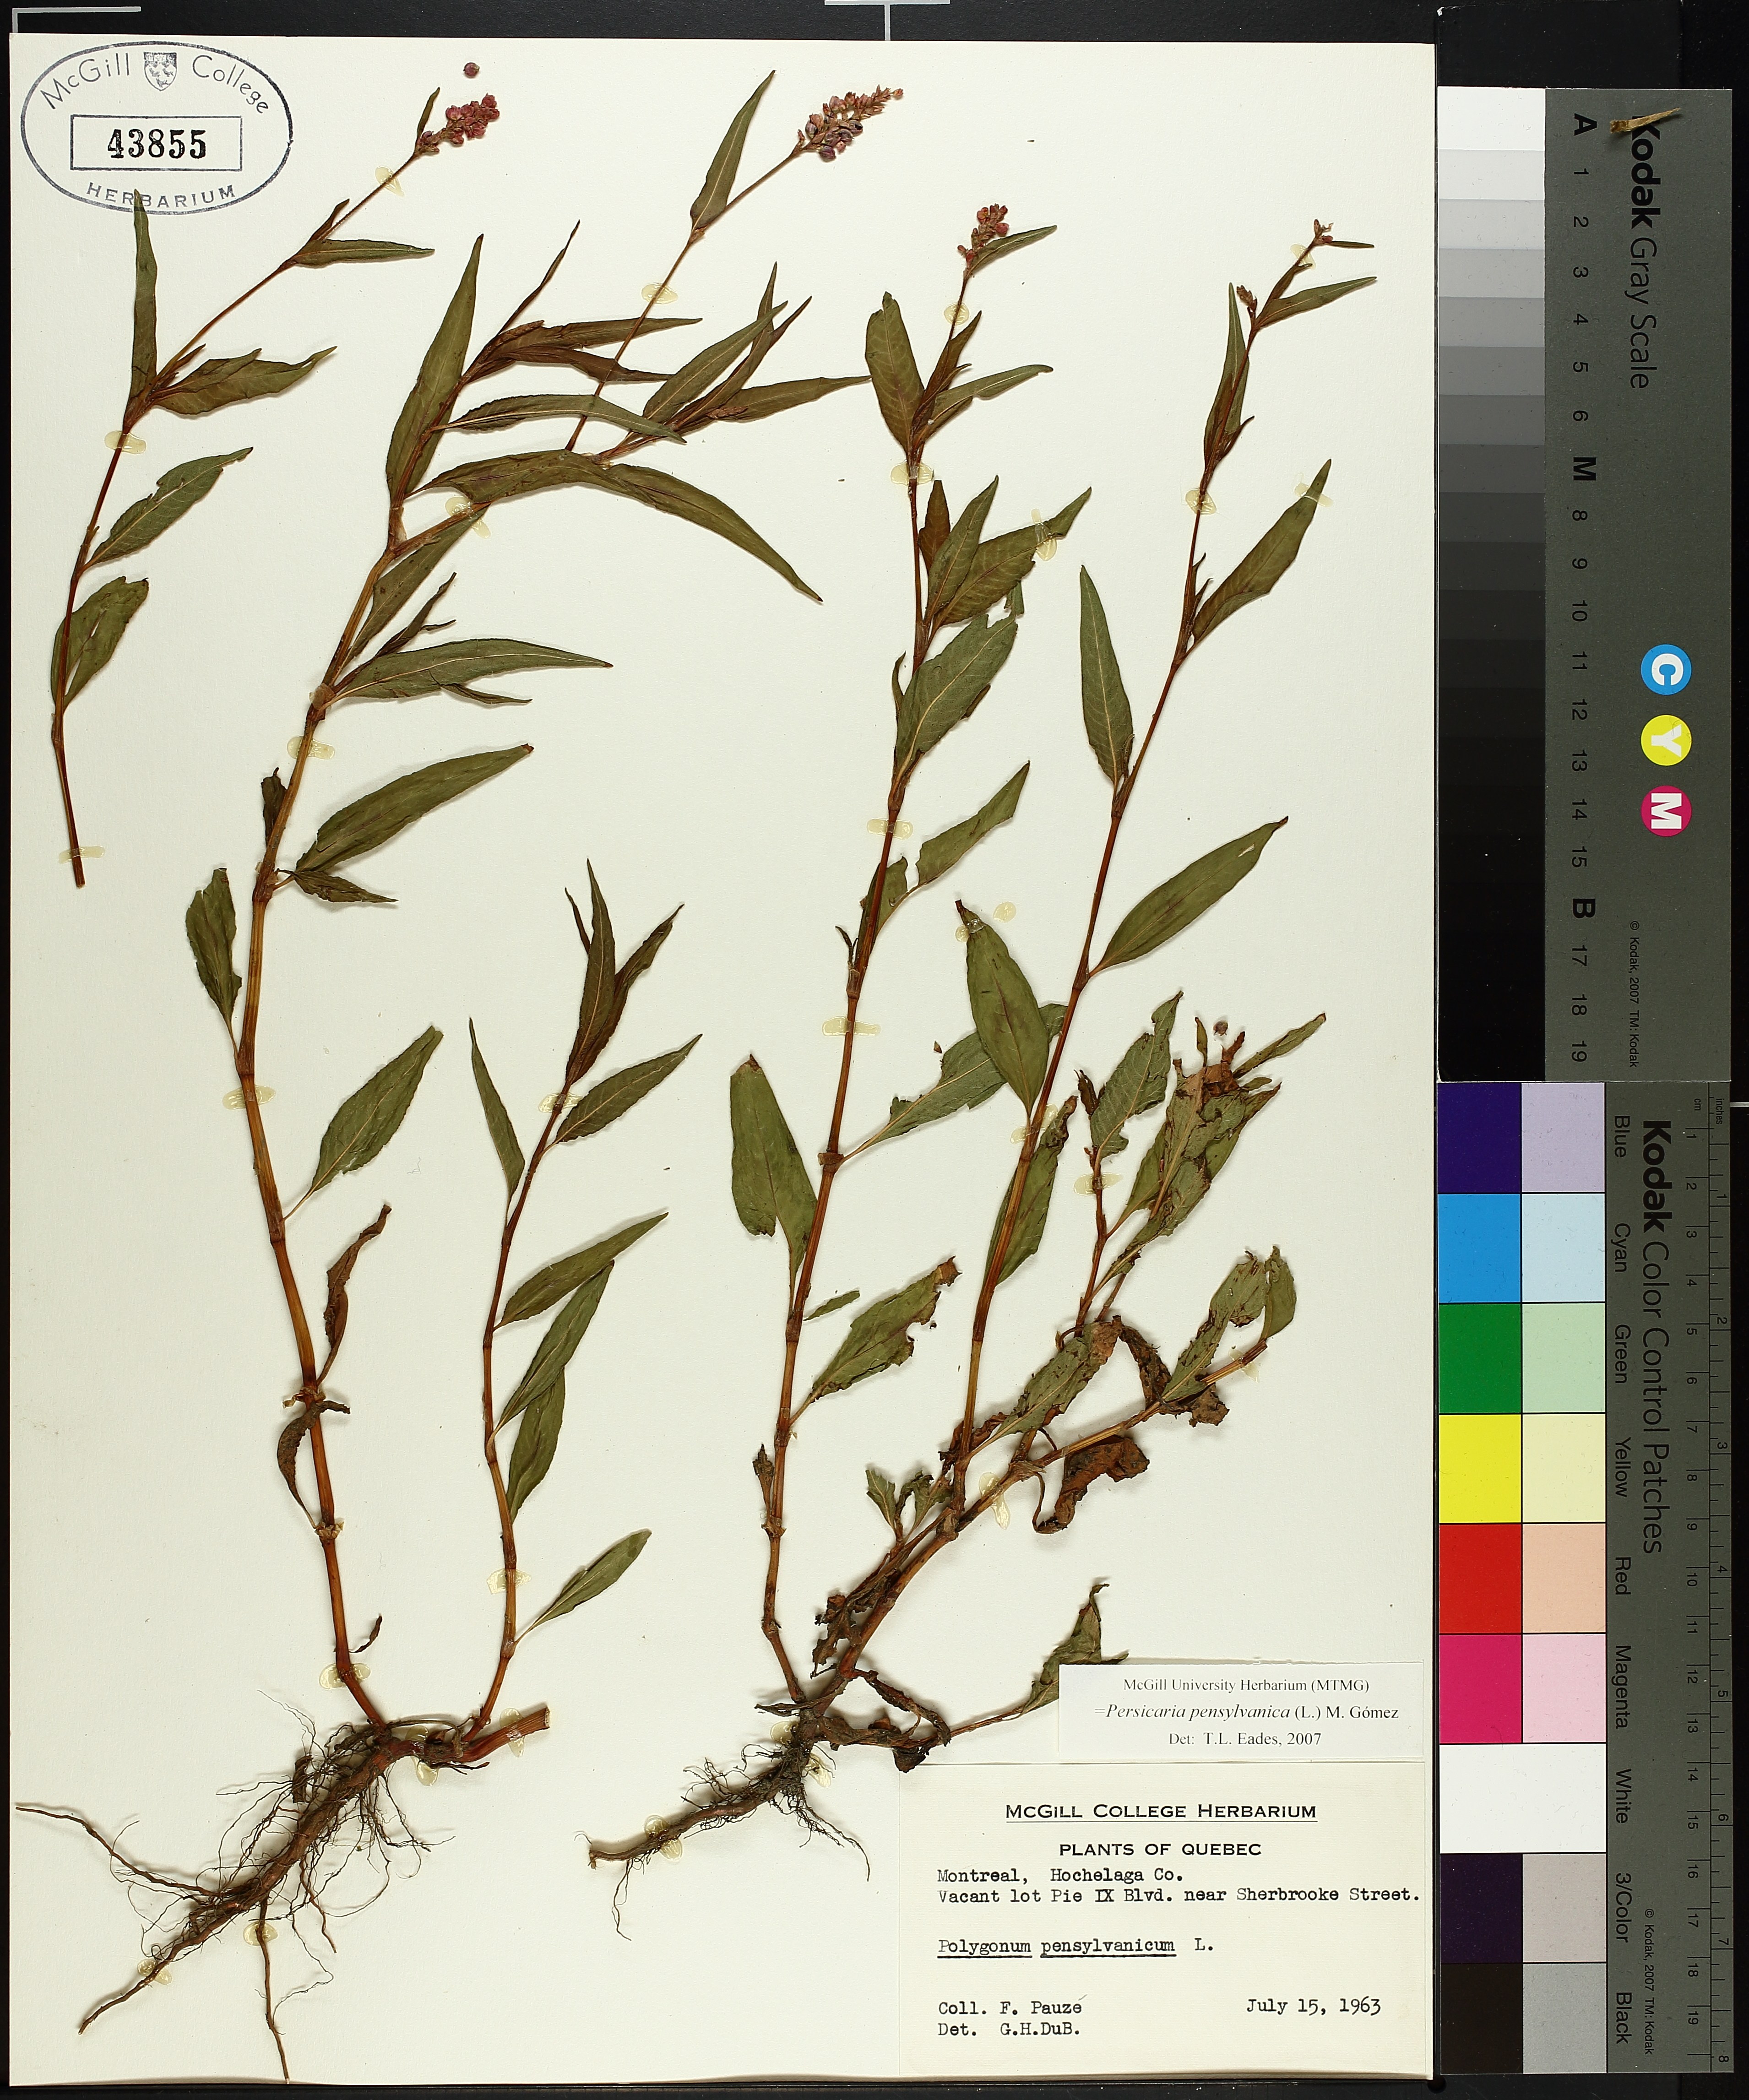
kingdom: Plantae
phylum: Tracheophyta
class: Magnoliopsida
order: Caryophyllales
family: Polygonaceae
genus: Persicaria
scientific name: Persicaria bungeana
